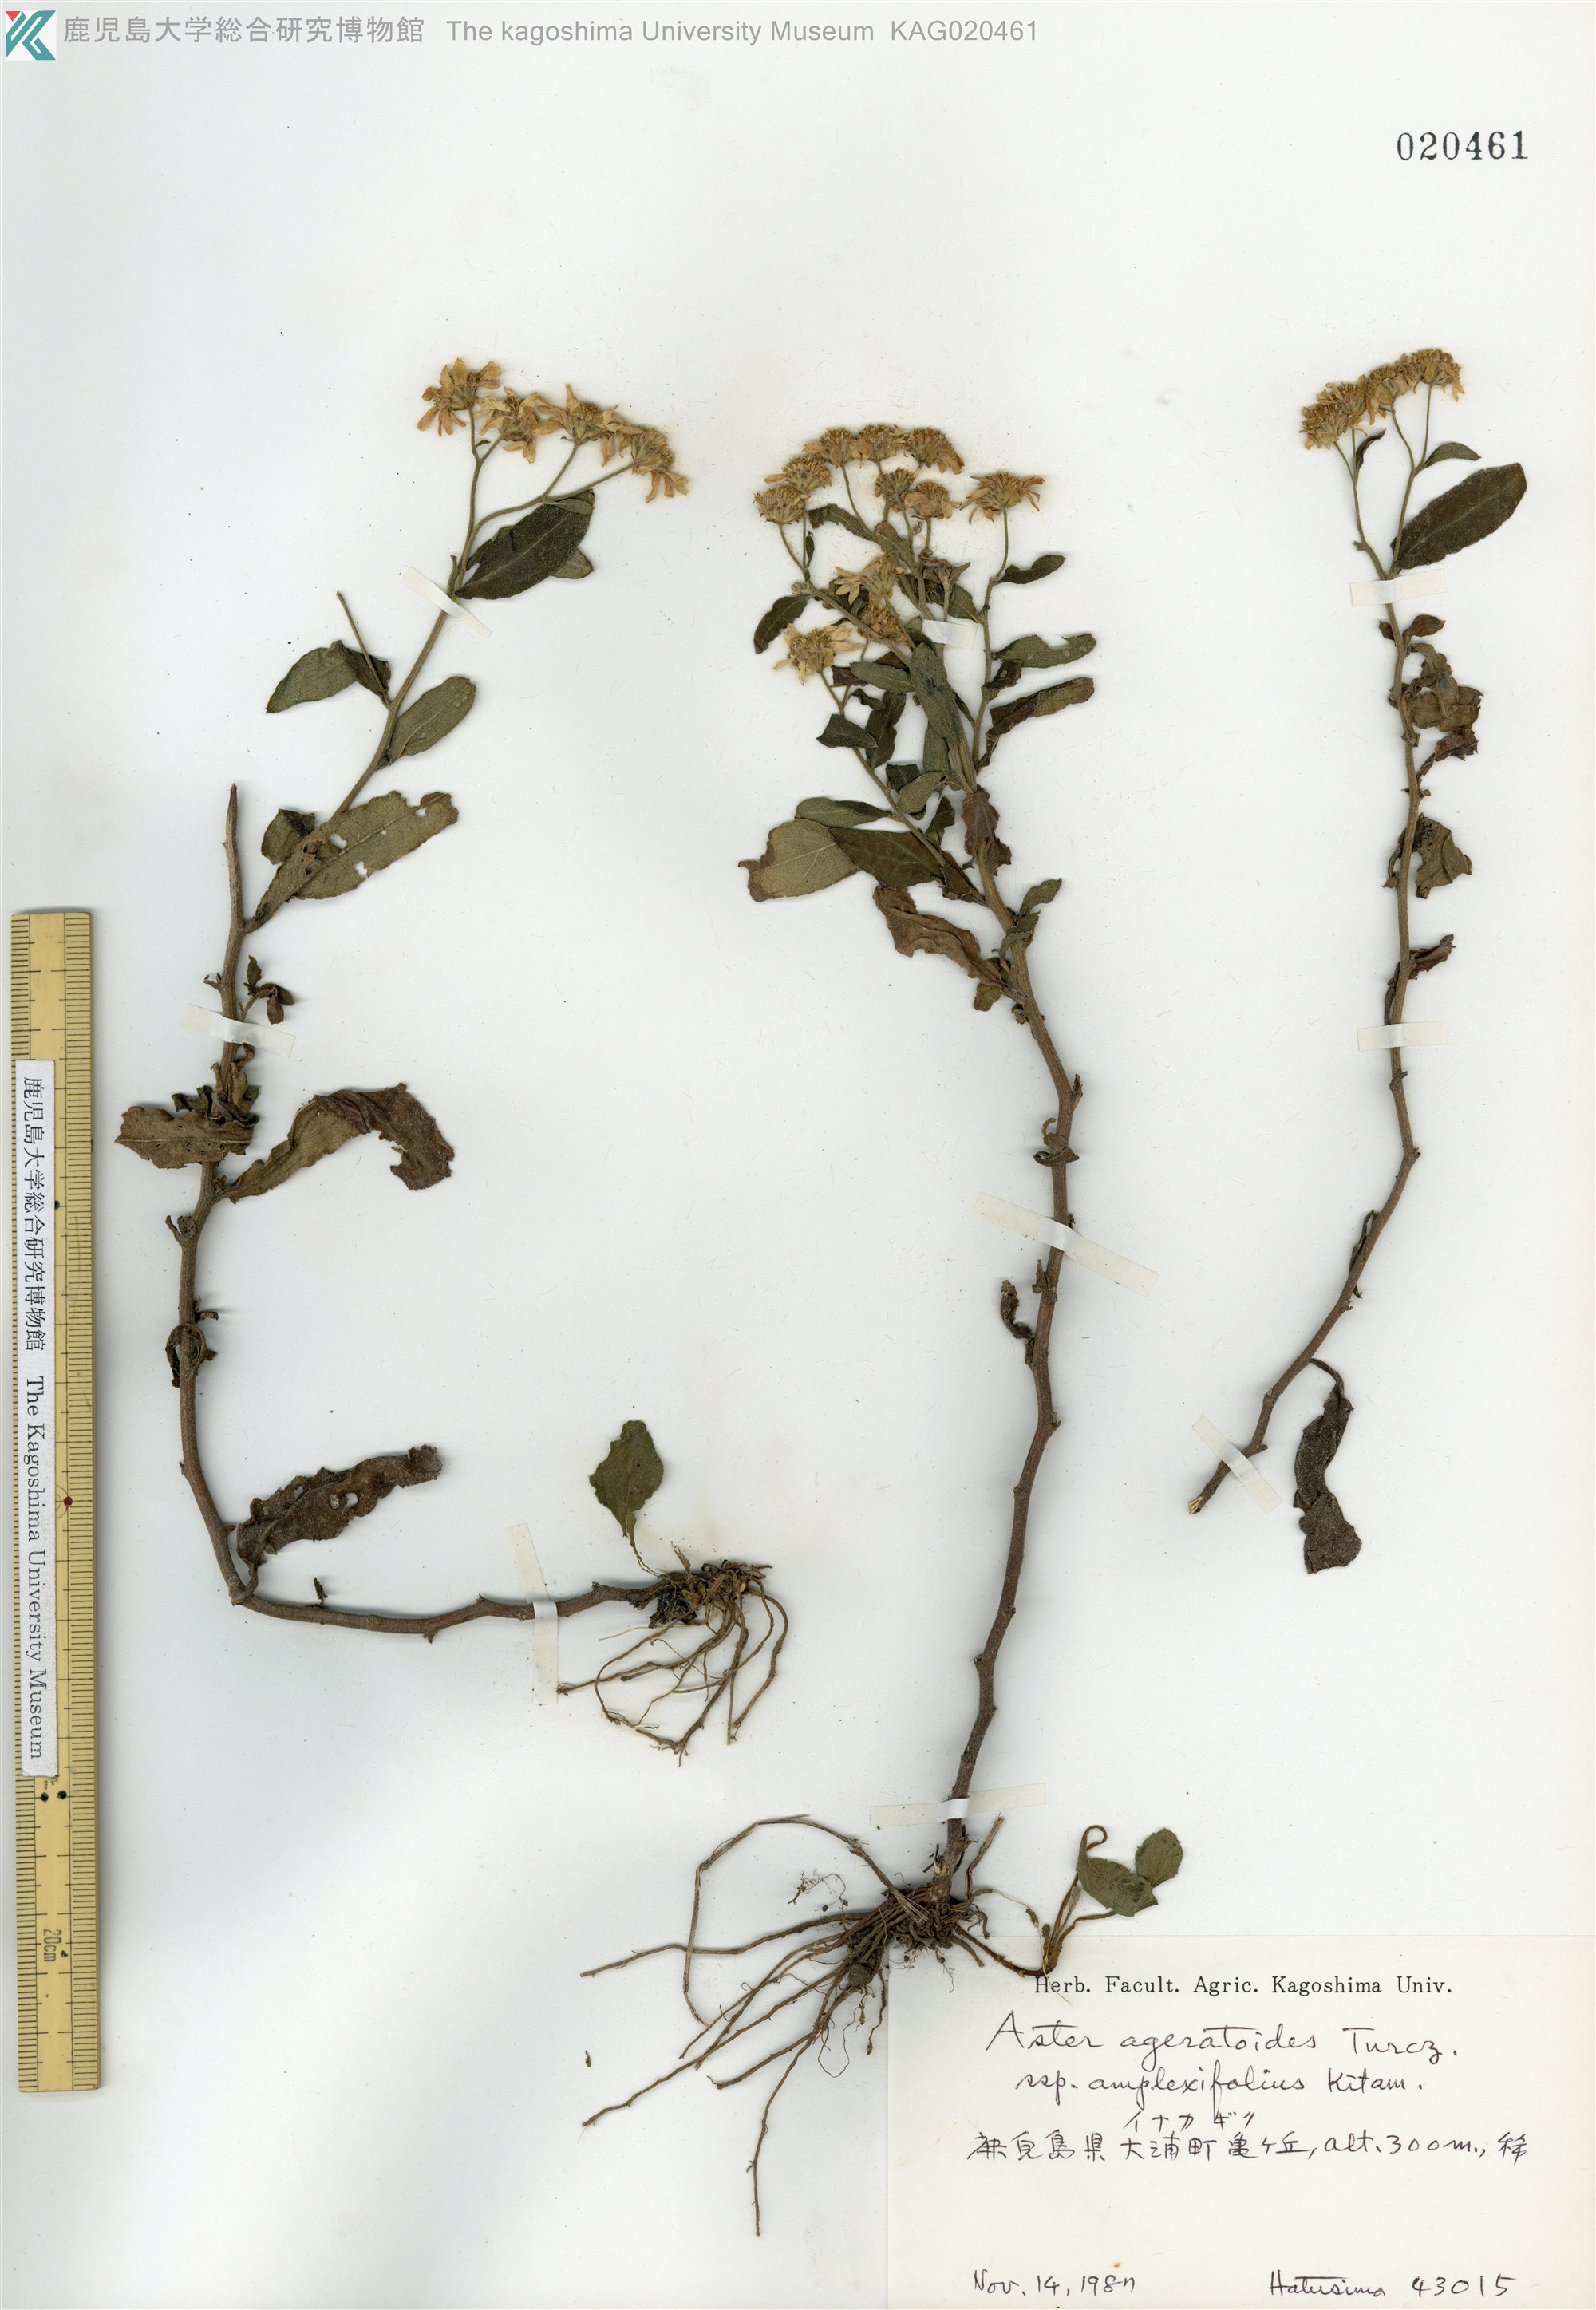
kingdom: Plantae
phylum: Tracheophyta
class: Magnoliopsida
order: Asterales
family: Asteraceae
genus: Aster
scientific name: Aster satsumensis
